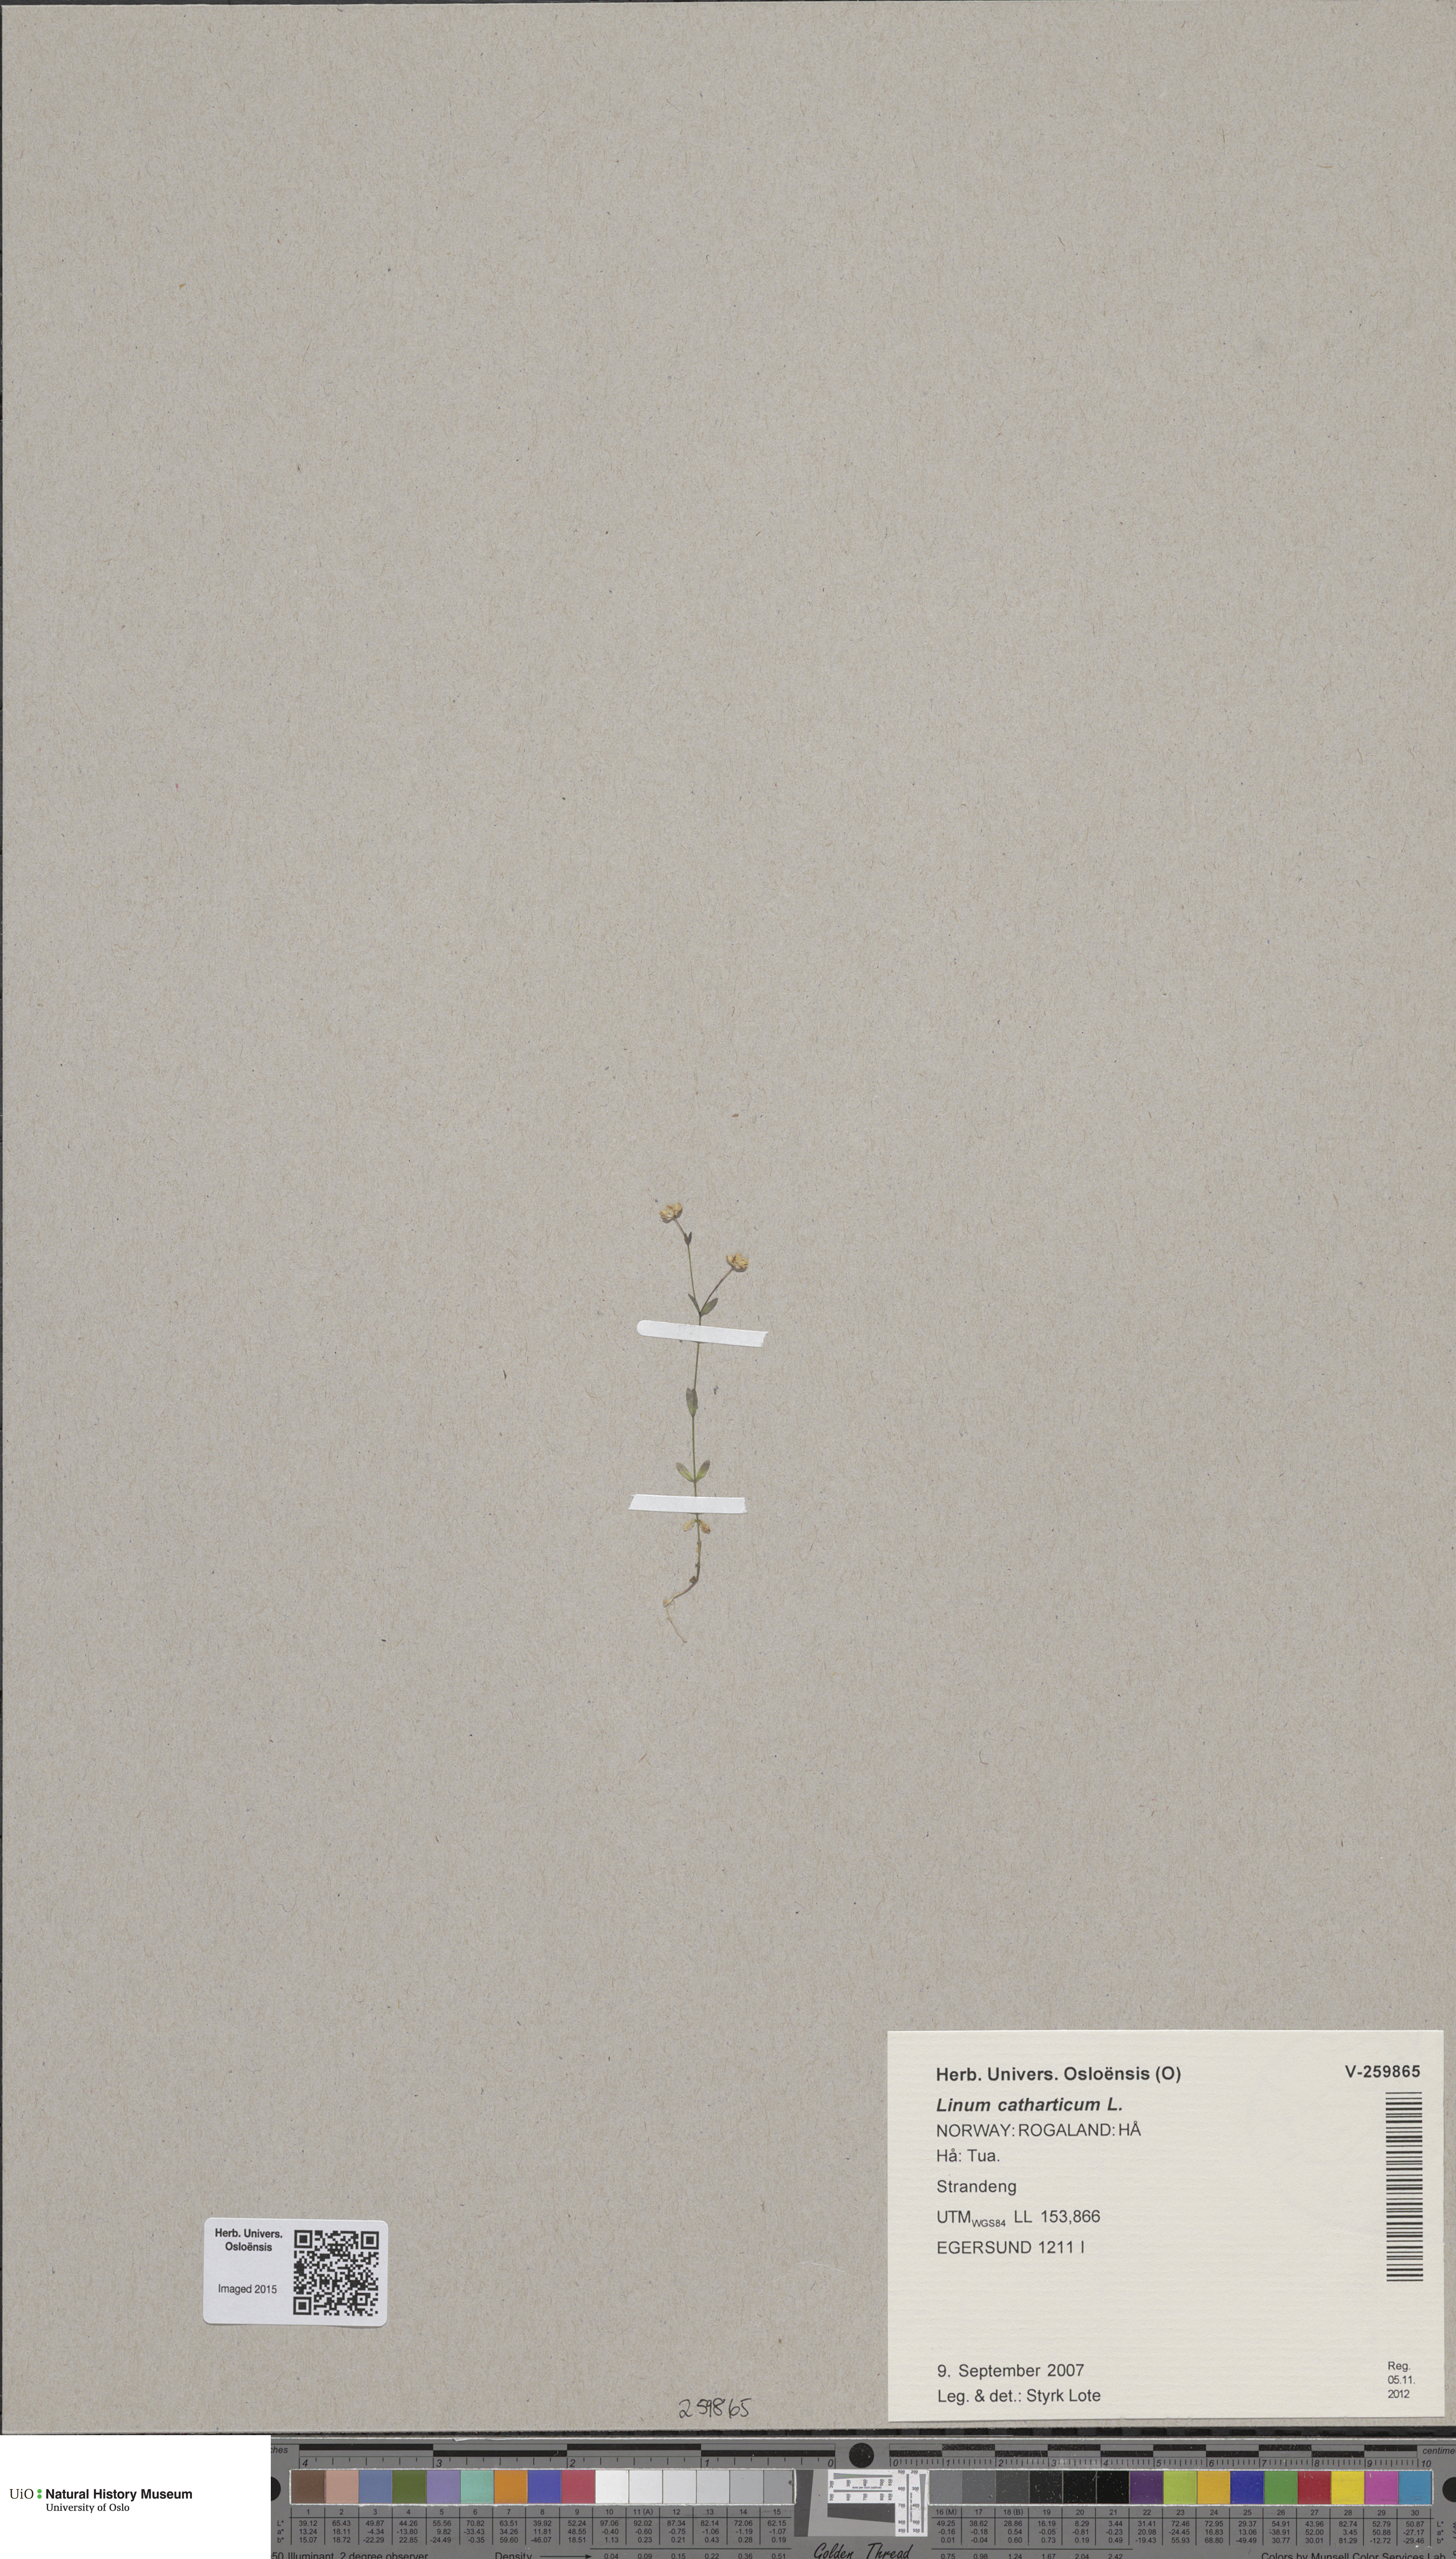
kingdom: Plantae
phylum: Tracheophyta
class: Magnoliopsida
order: Malpighiales
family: Linaceae
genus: Linum
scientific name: Linum catharticum
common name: Fairy flax
